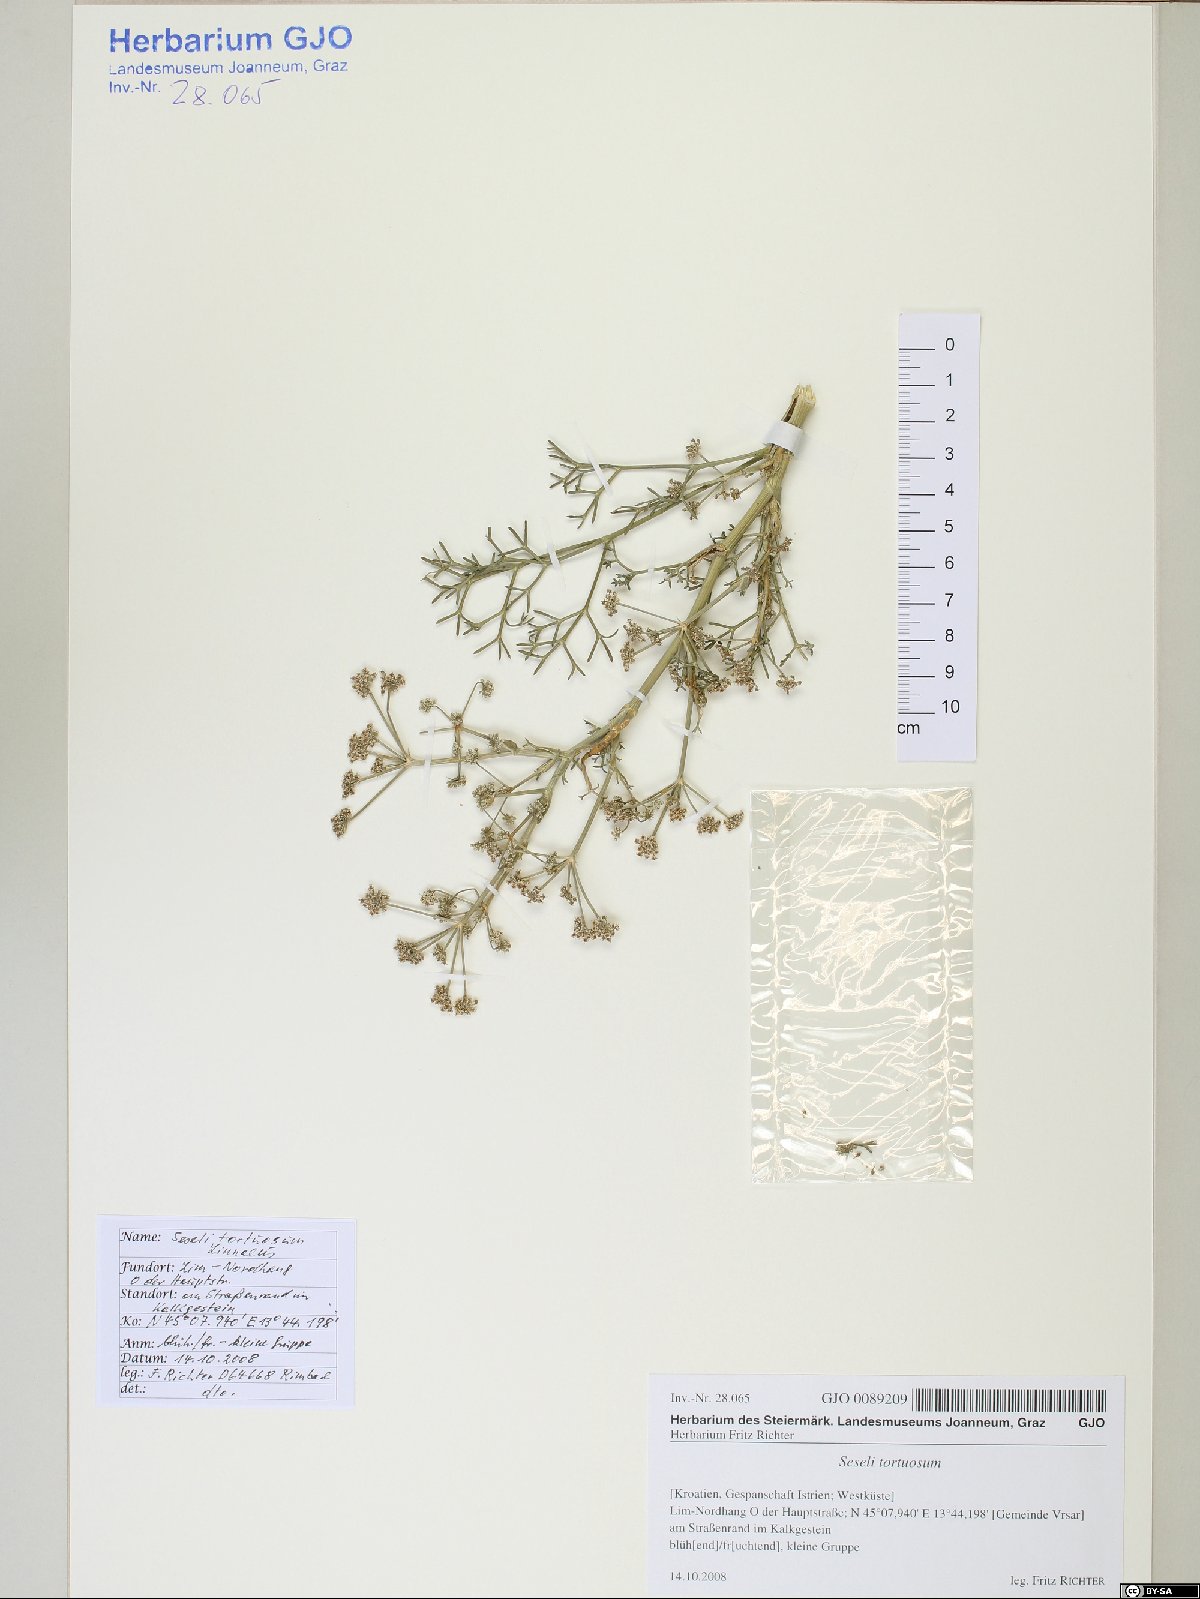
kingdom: Plantae
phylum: Tracheophyta
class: Magnoliopsida
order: Apiales
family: Apiaceae
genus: Seseli
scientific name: Seseli tortuosum
